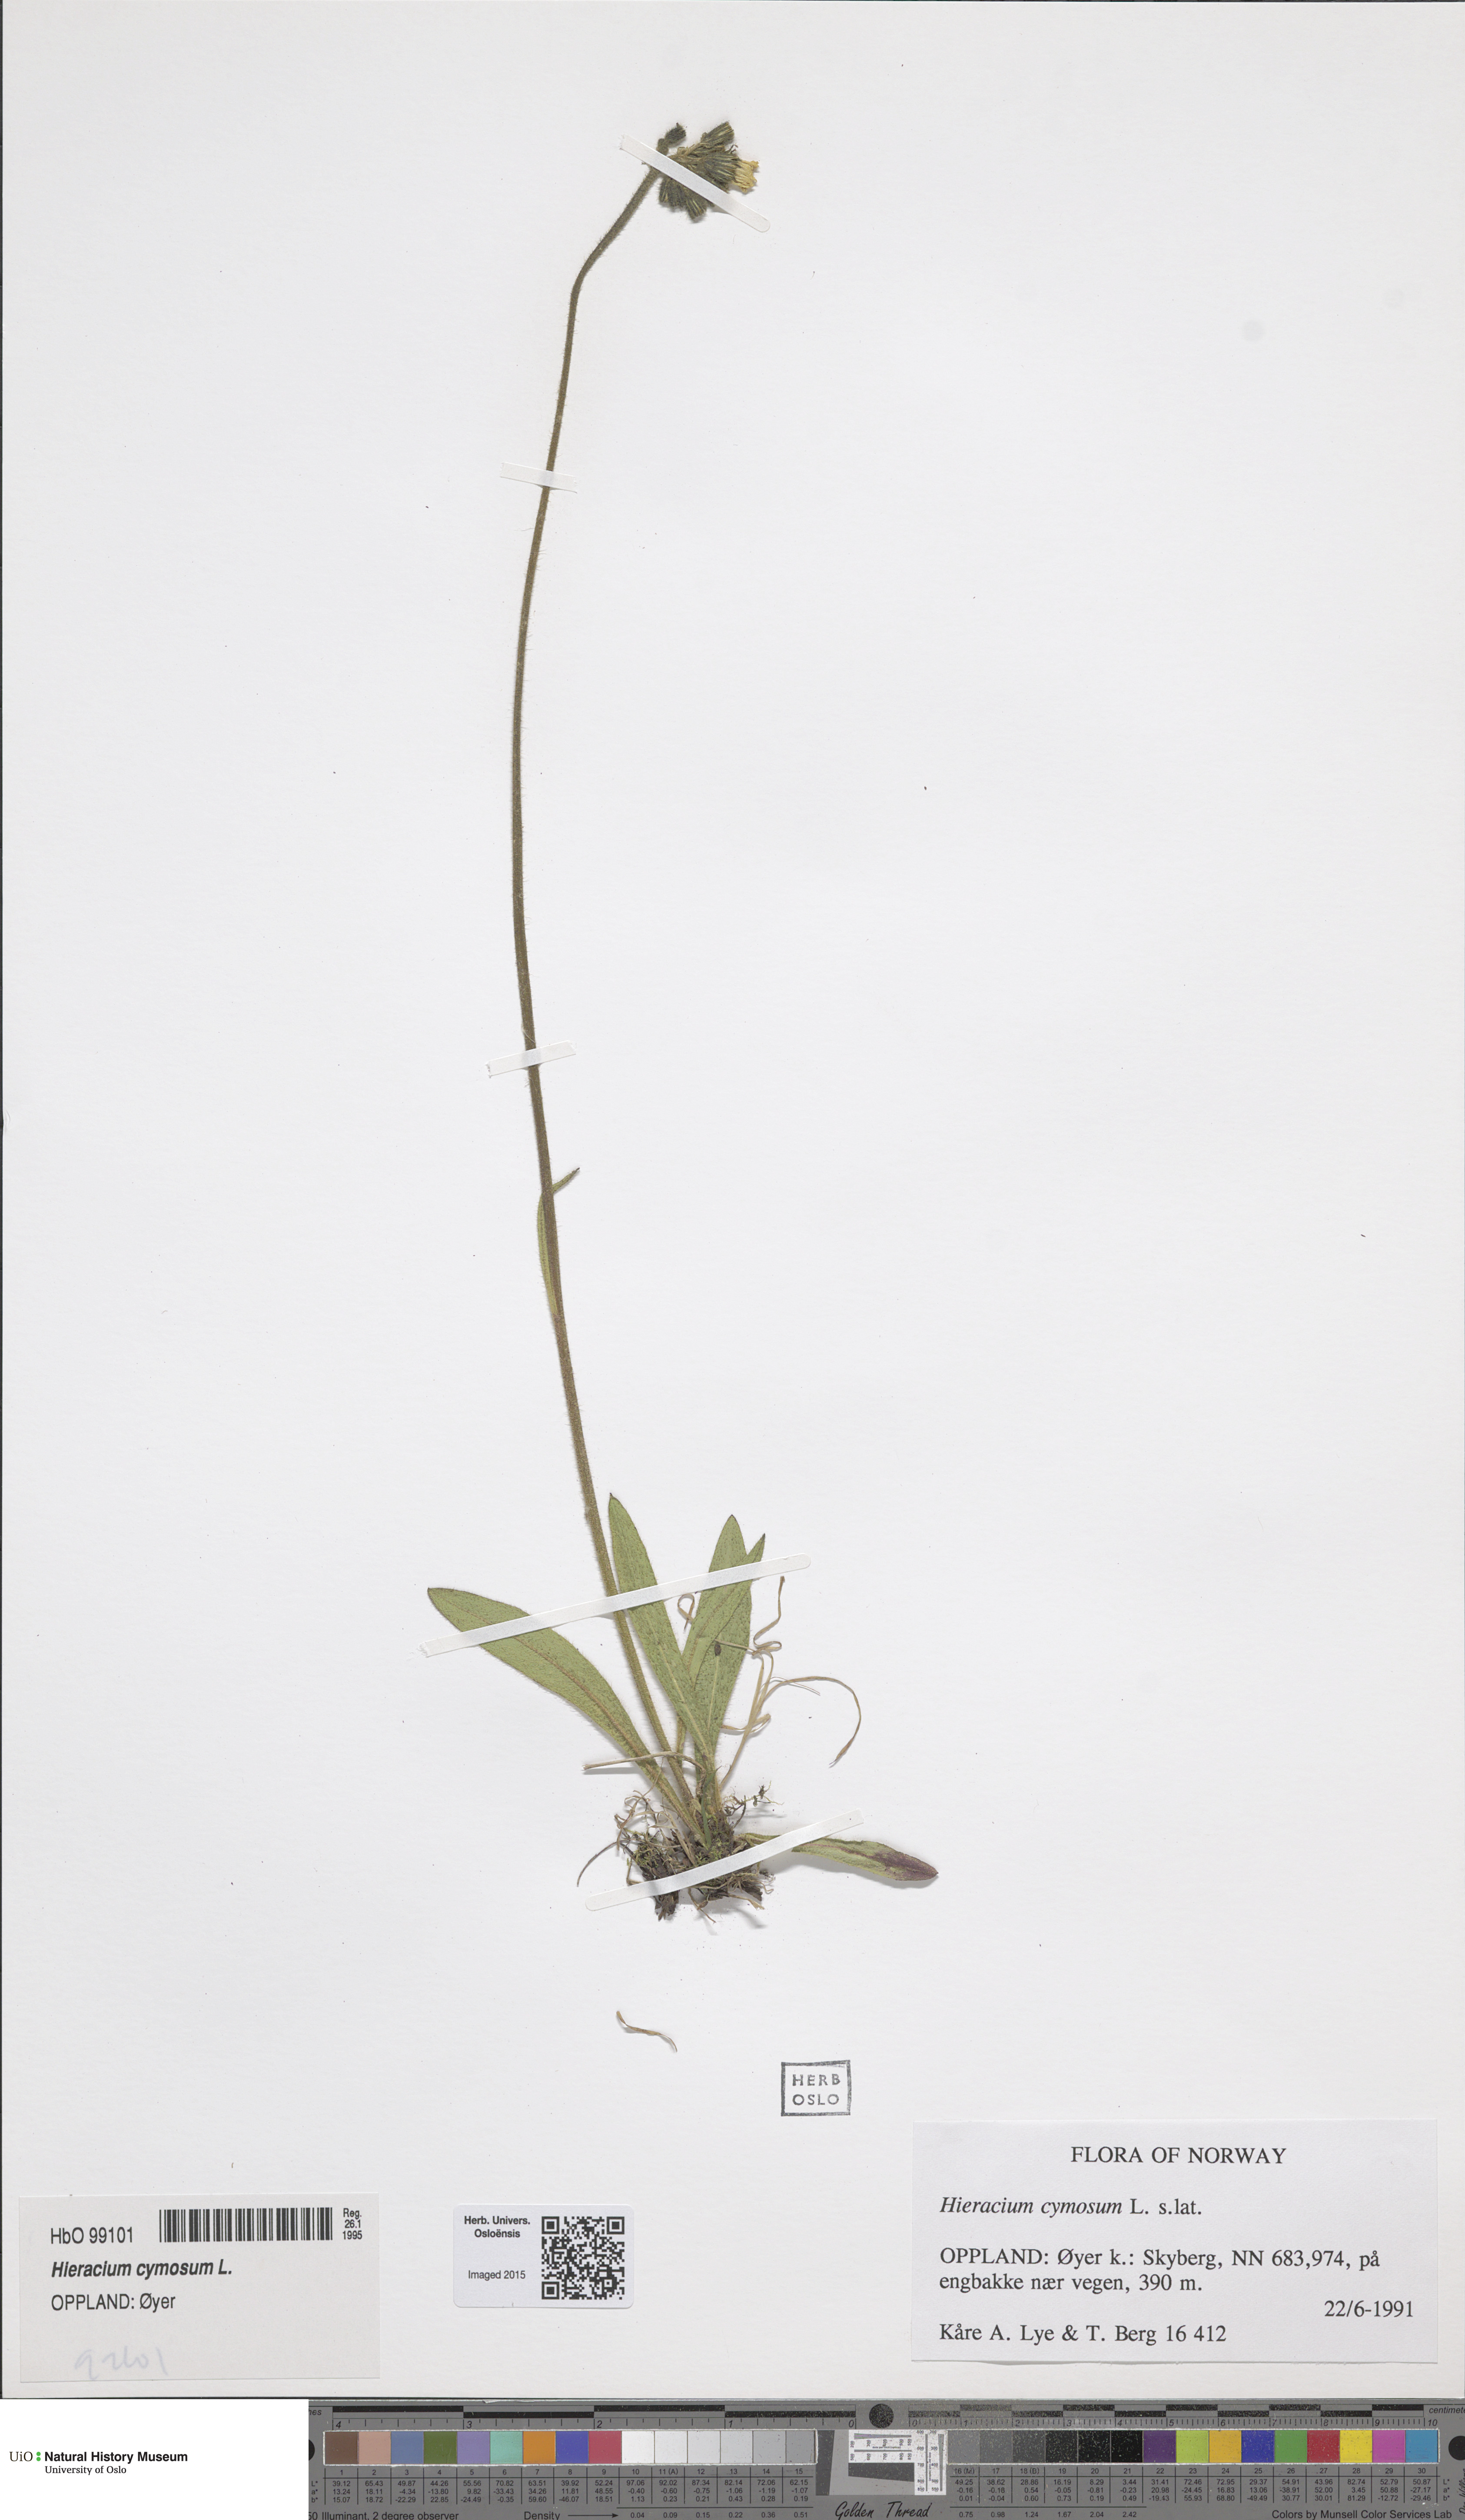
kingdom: Plantae
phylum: Tracheophyta
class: Magnoliopsida
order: Asterales
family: Asteraceae
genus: Pilosella
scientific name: Pilosella cymosa
